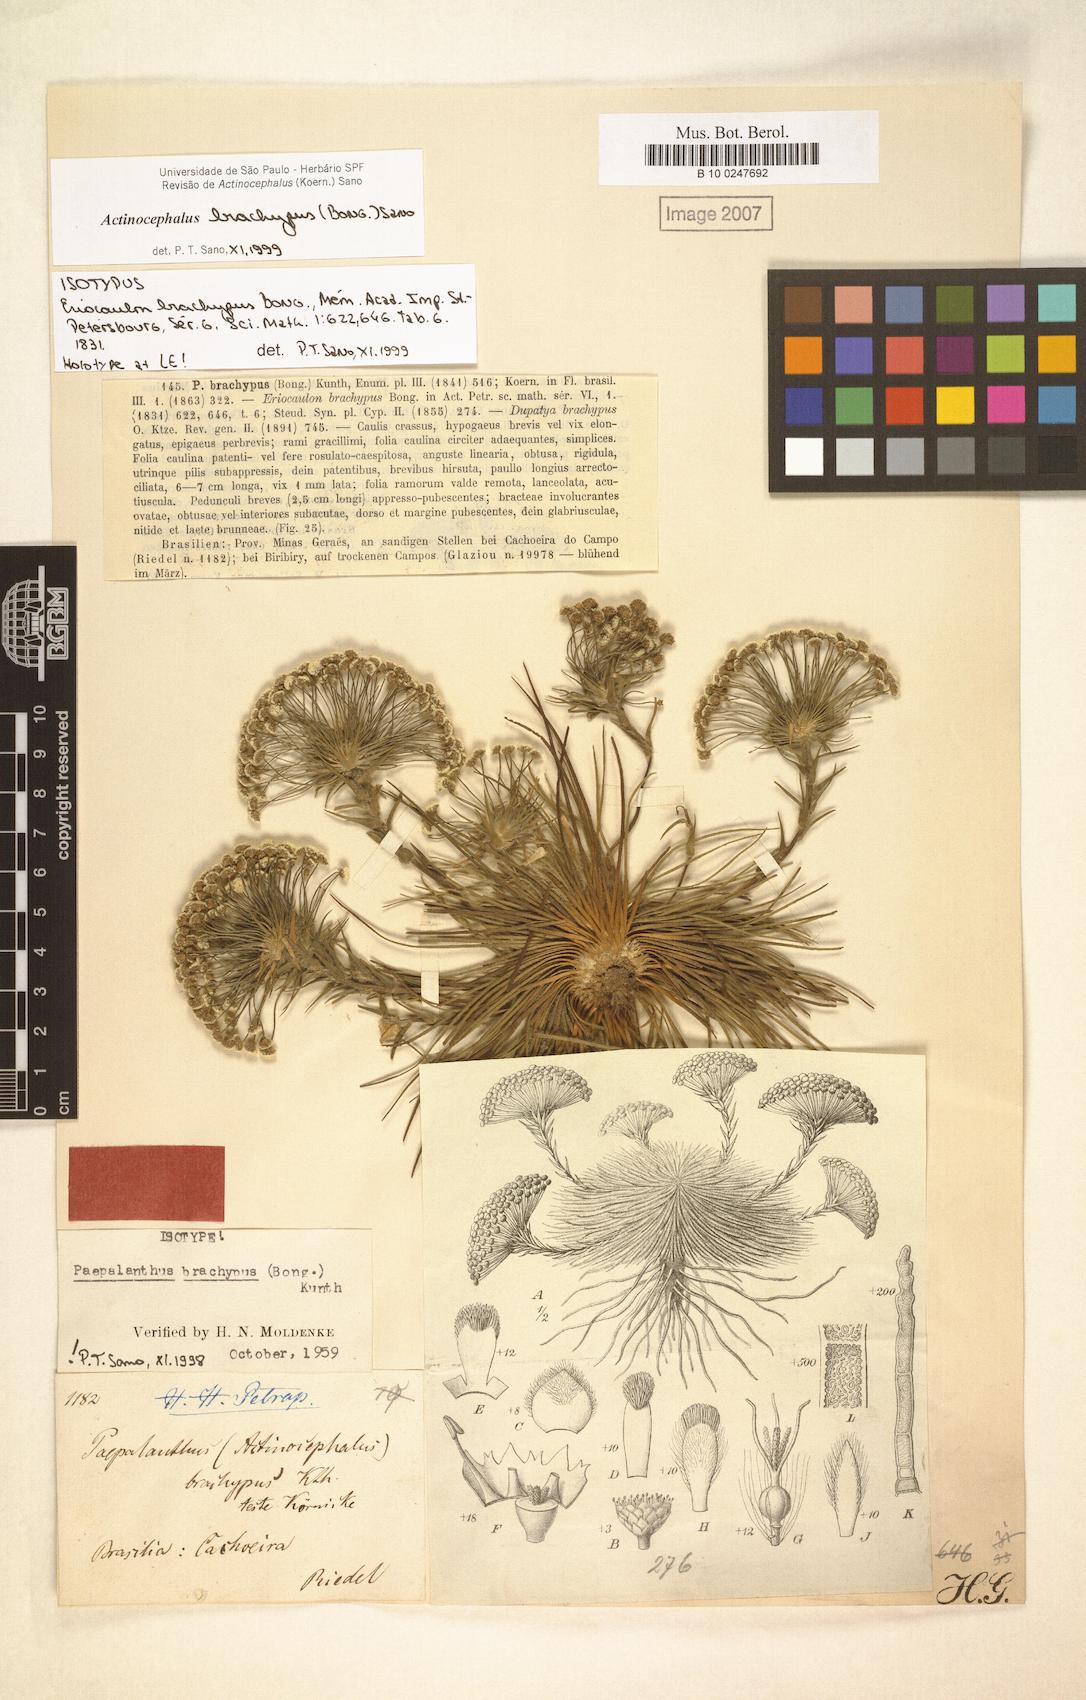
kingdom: Plantae
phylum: Tracheophyta
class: Liliopsida
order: Poales
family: Eriocaulaceae
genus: Paepalanthus
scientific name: Paepalanthus brachypus
